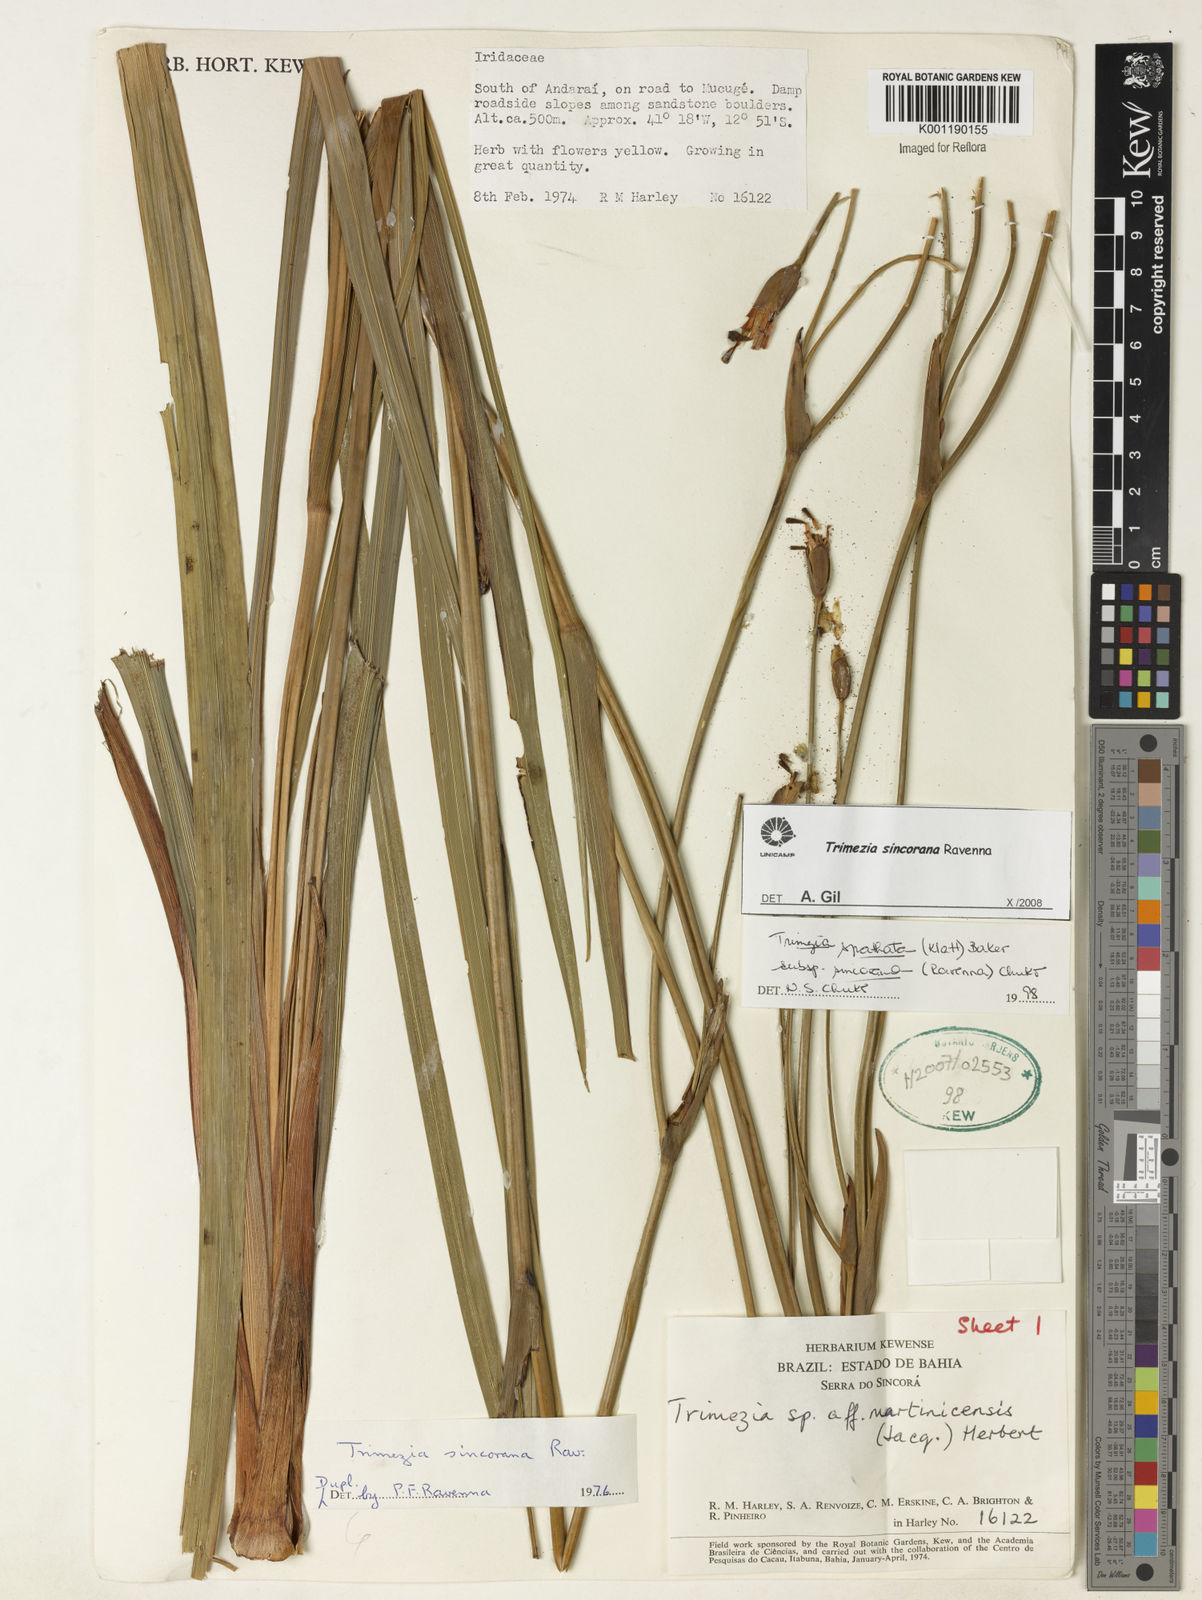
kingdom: Plantae
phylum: Tracheophyta
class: Liliopsida
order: Asparagales
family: Iridaceae
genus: Trimezia
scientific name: Trimezia spathata
